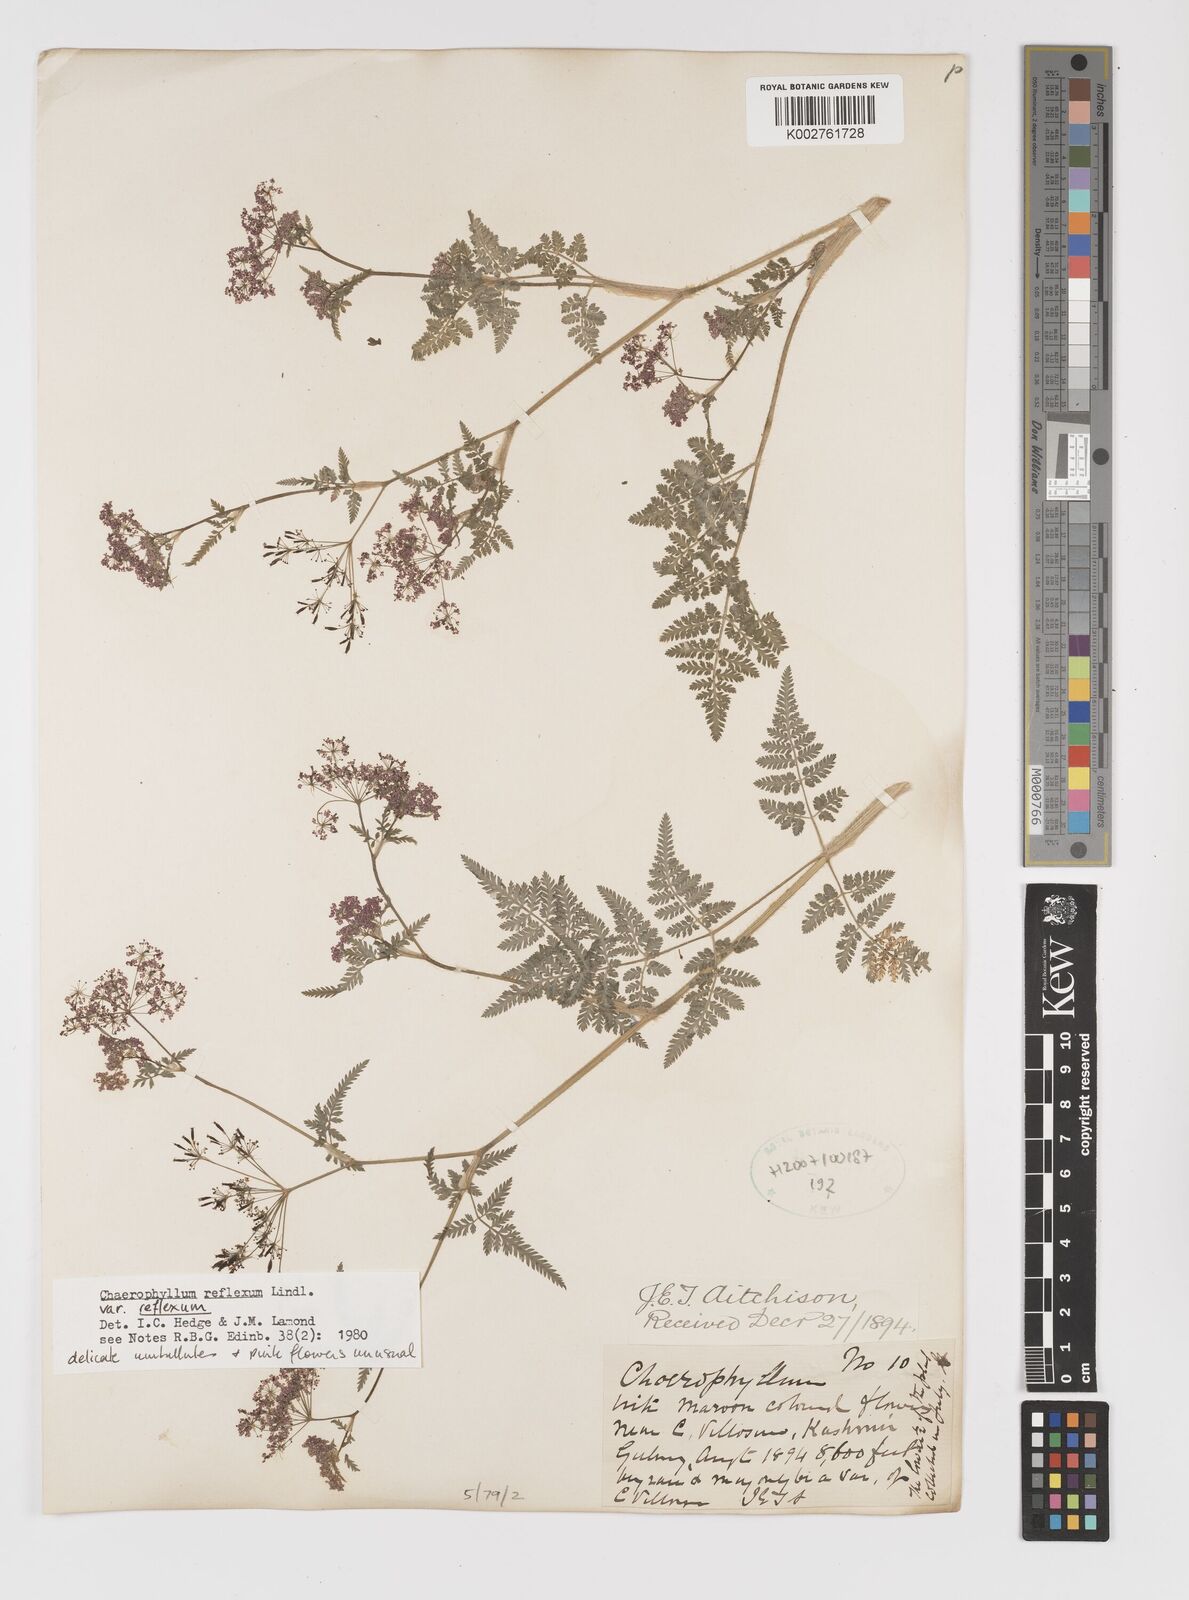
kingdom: Plantae
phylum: Tracheophyta
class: Magnoliopsida
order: Apiales
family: Apiaceae
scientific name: Apiaceae
